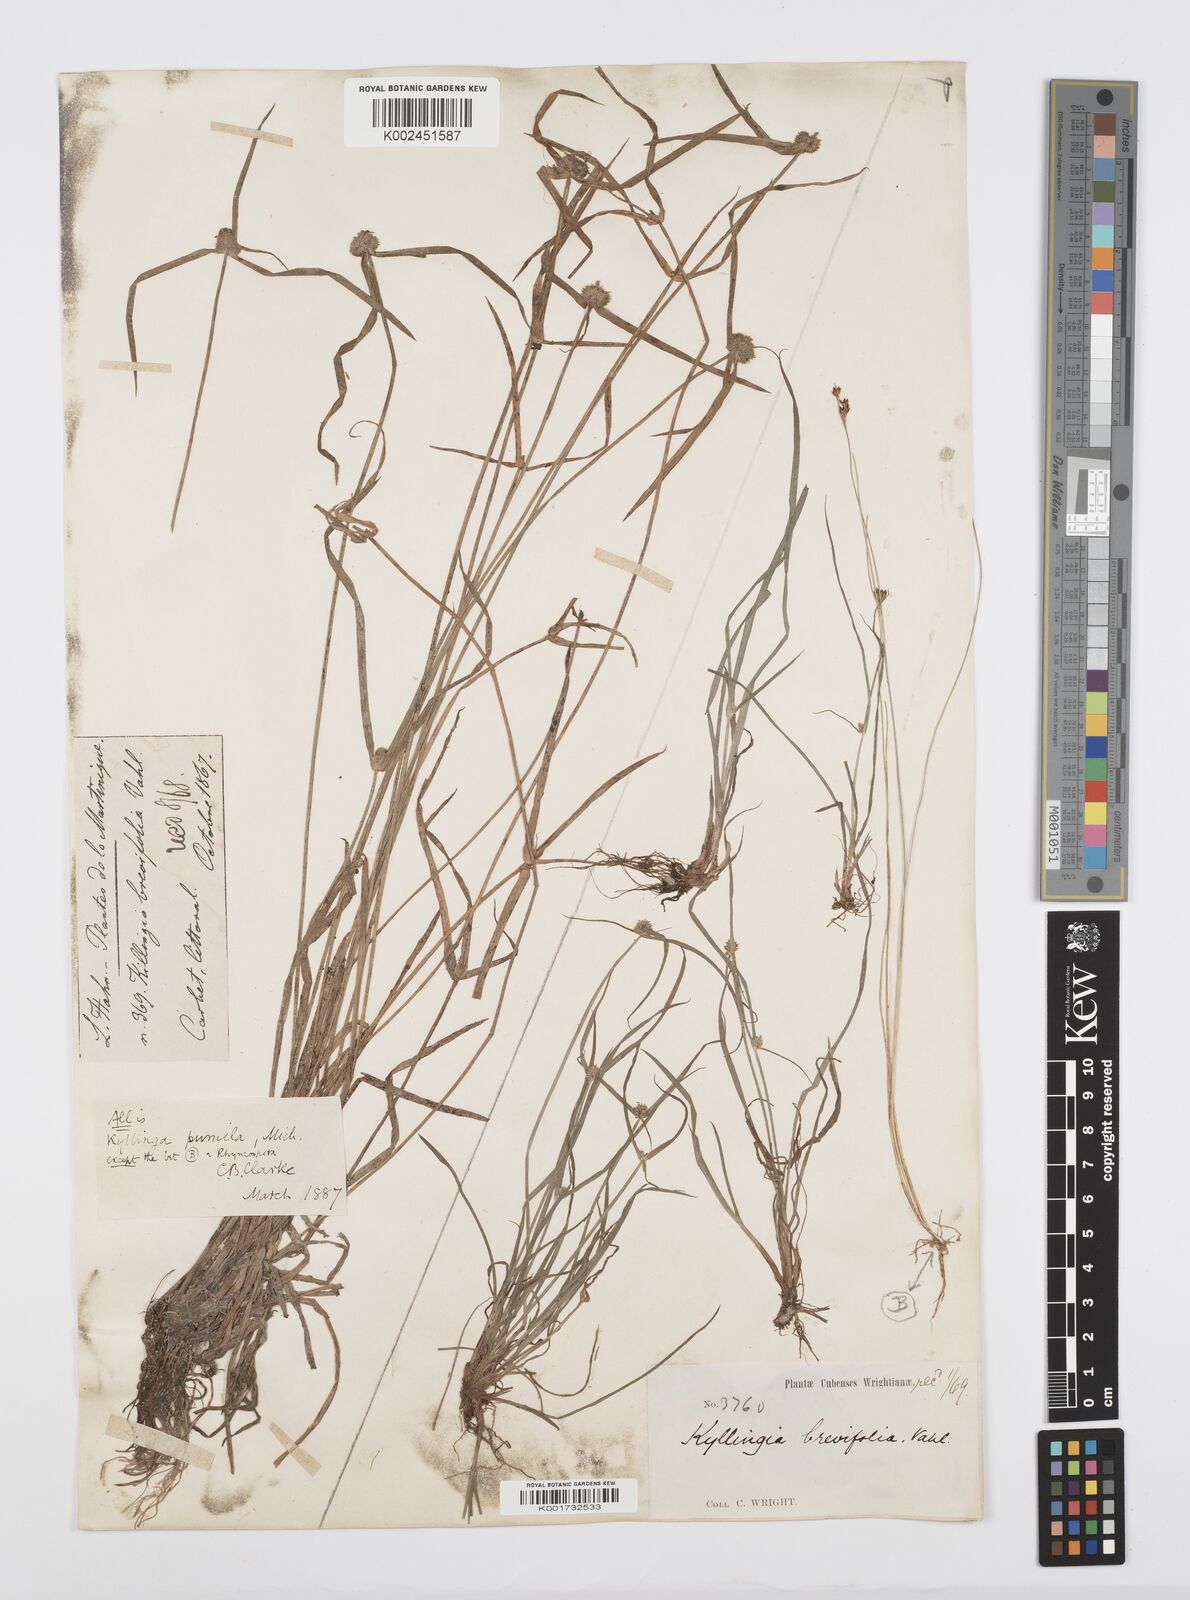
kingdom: Plantae
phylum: Tracheophyta
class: Liliopsida
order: Poales
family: Cyperaceae
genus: Cyperus
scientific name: Cyperus
